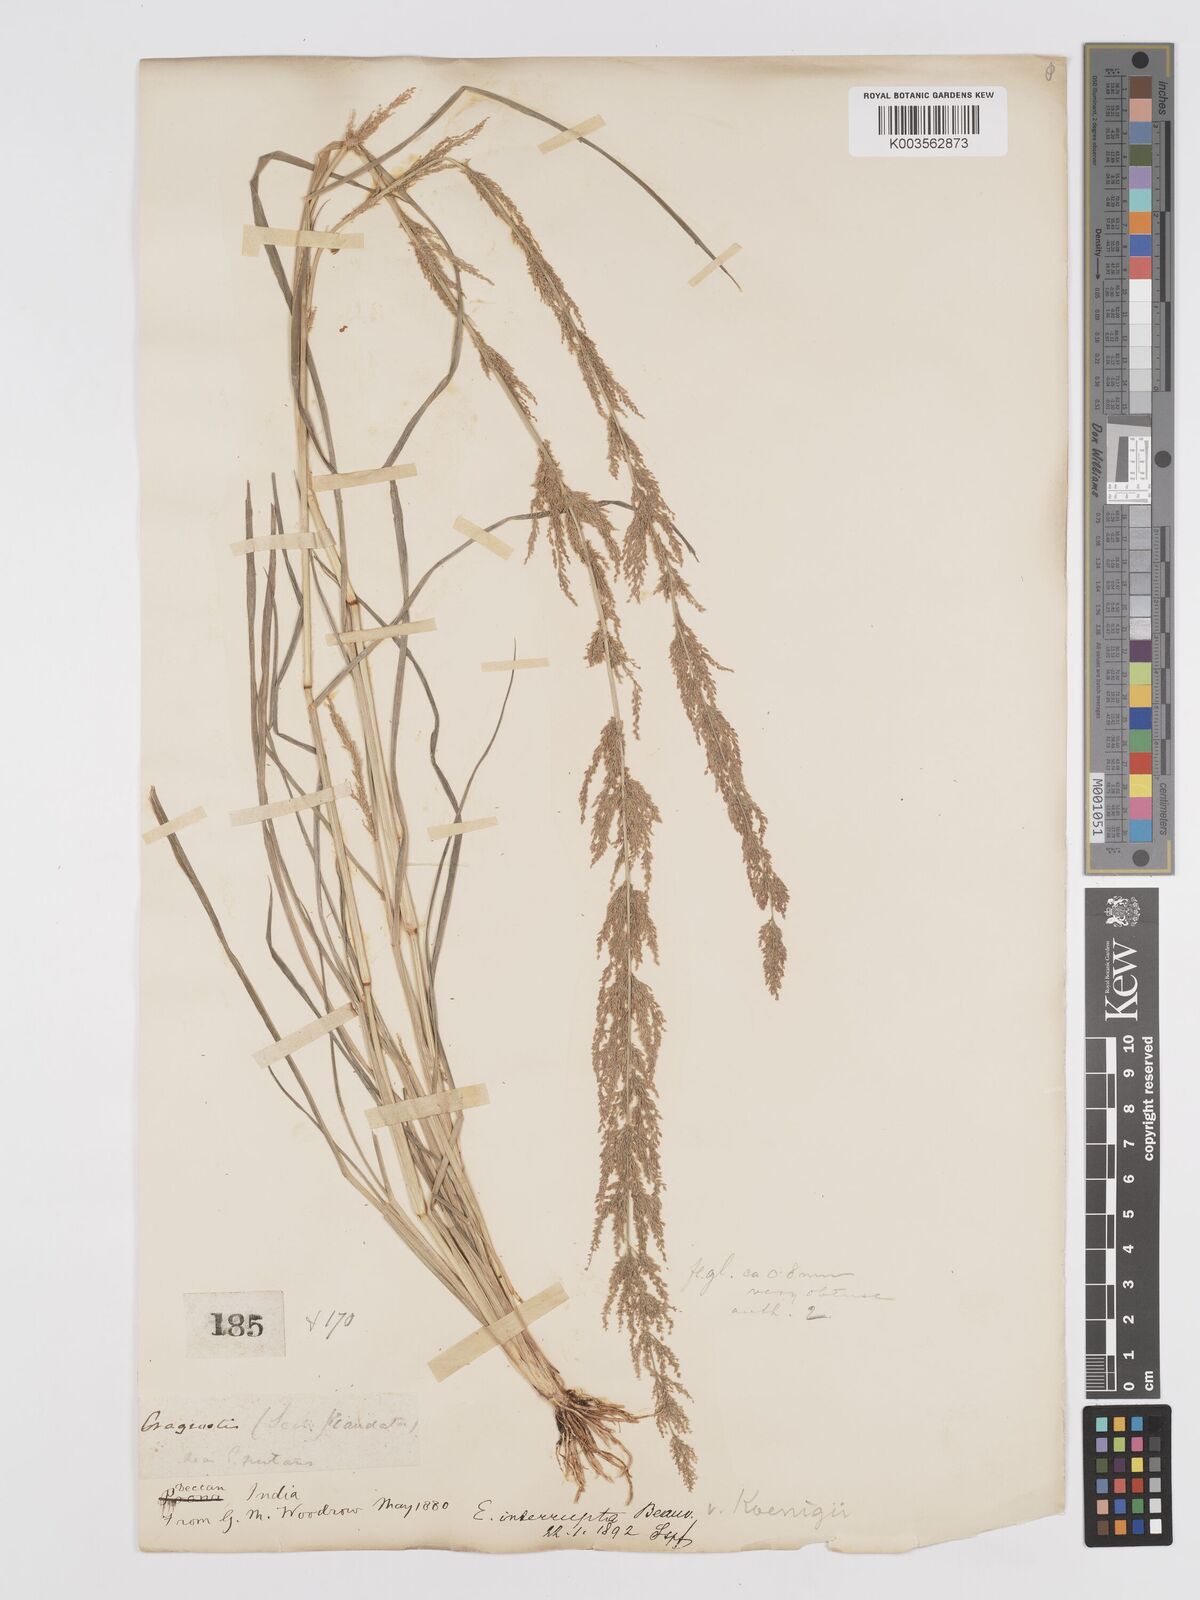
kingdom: Plantae
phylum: Tracheophyta
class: Liliopsida
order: Poales
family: Poaceae
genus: Eragrostis
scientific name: Eragrostis japonica
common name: Pond lovegrass
